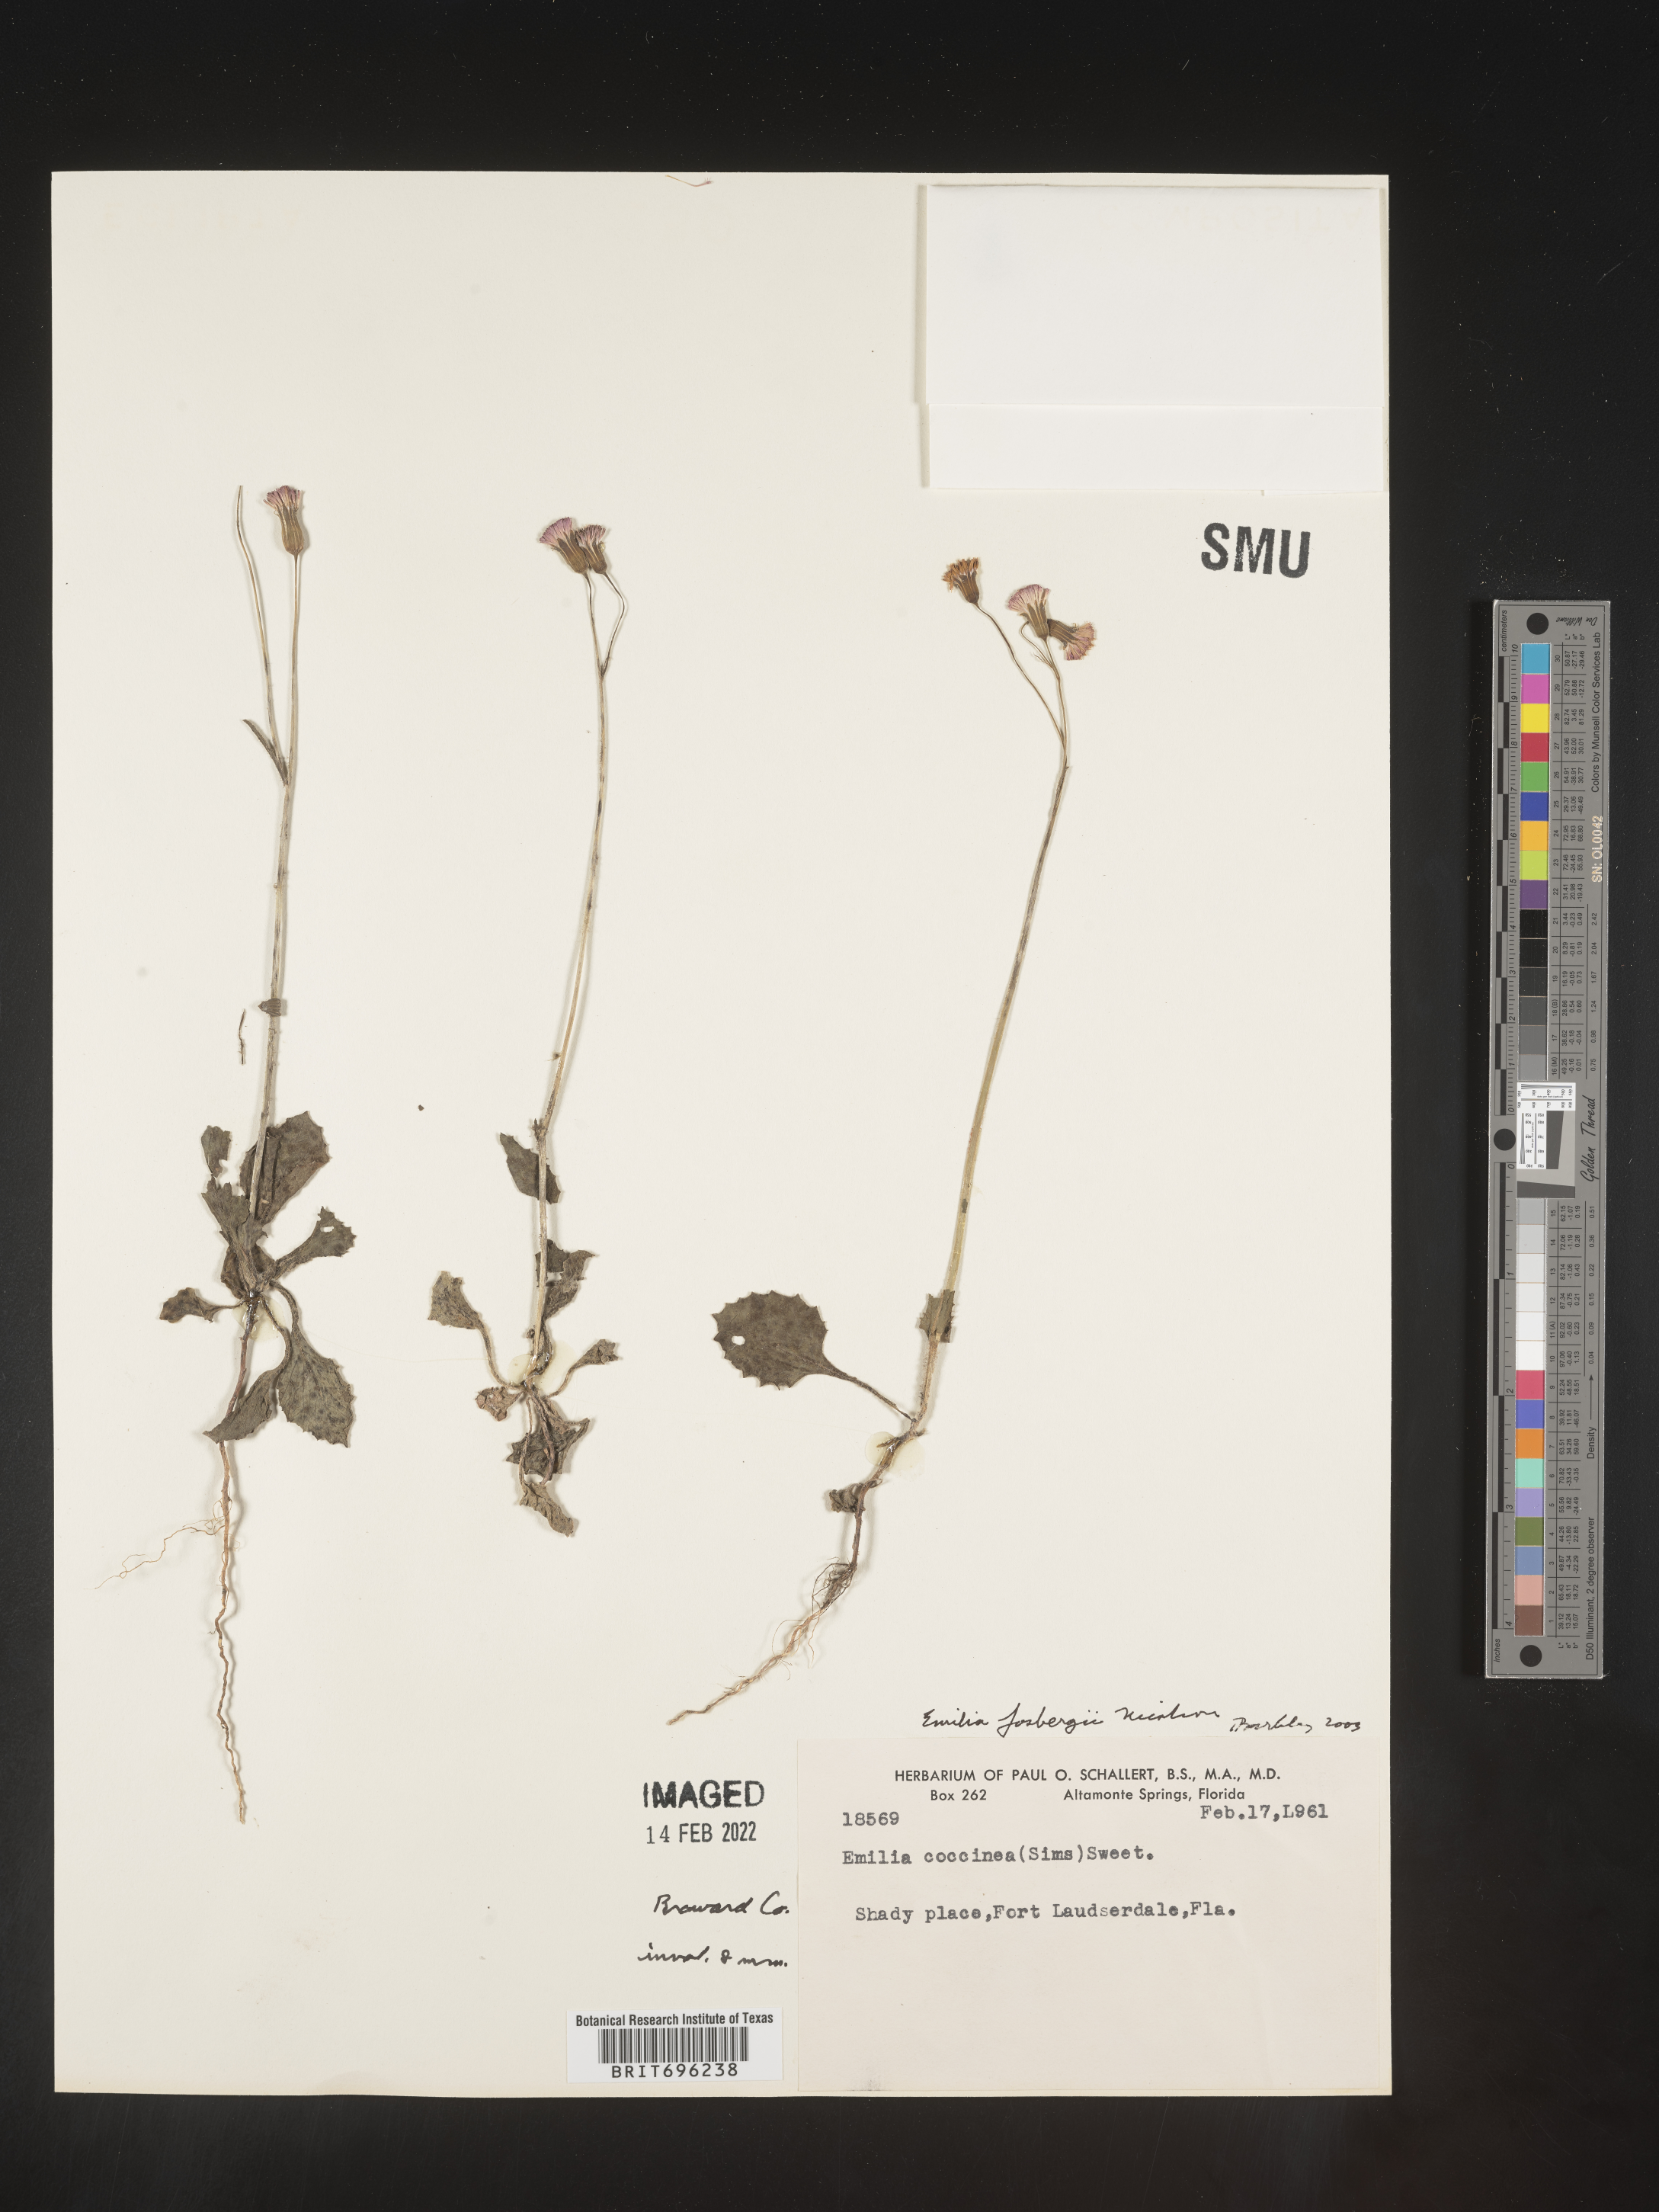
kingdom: Plantae
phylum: Tracheophyta
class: Magnoliopsida
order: Asterales
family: Asteraceae
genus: Emilia
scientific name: Emilia fosbergii
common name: Florida tasselflower
